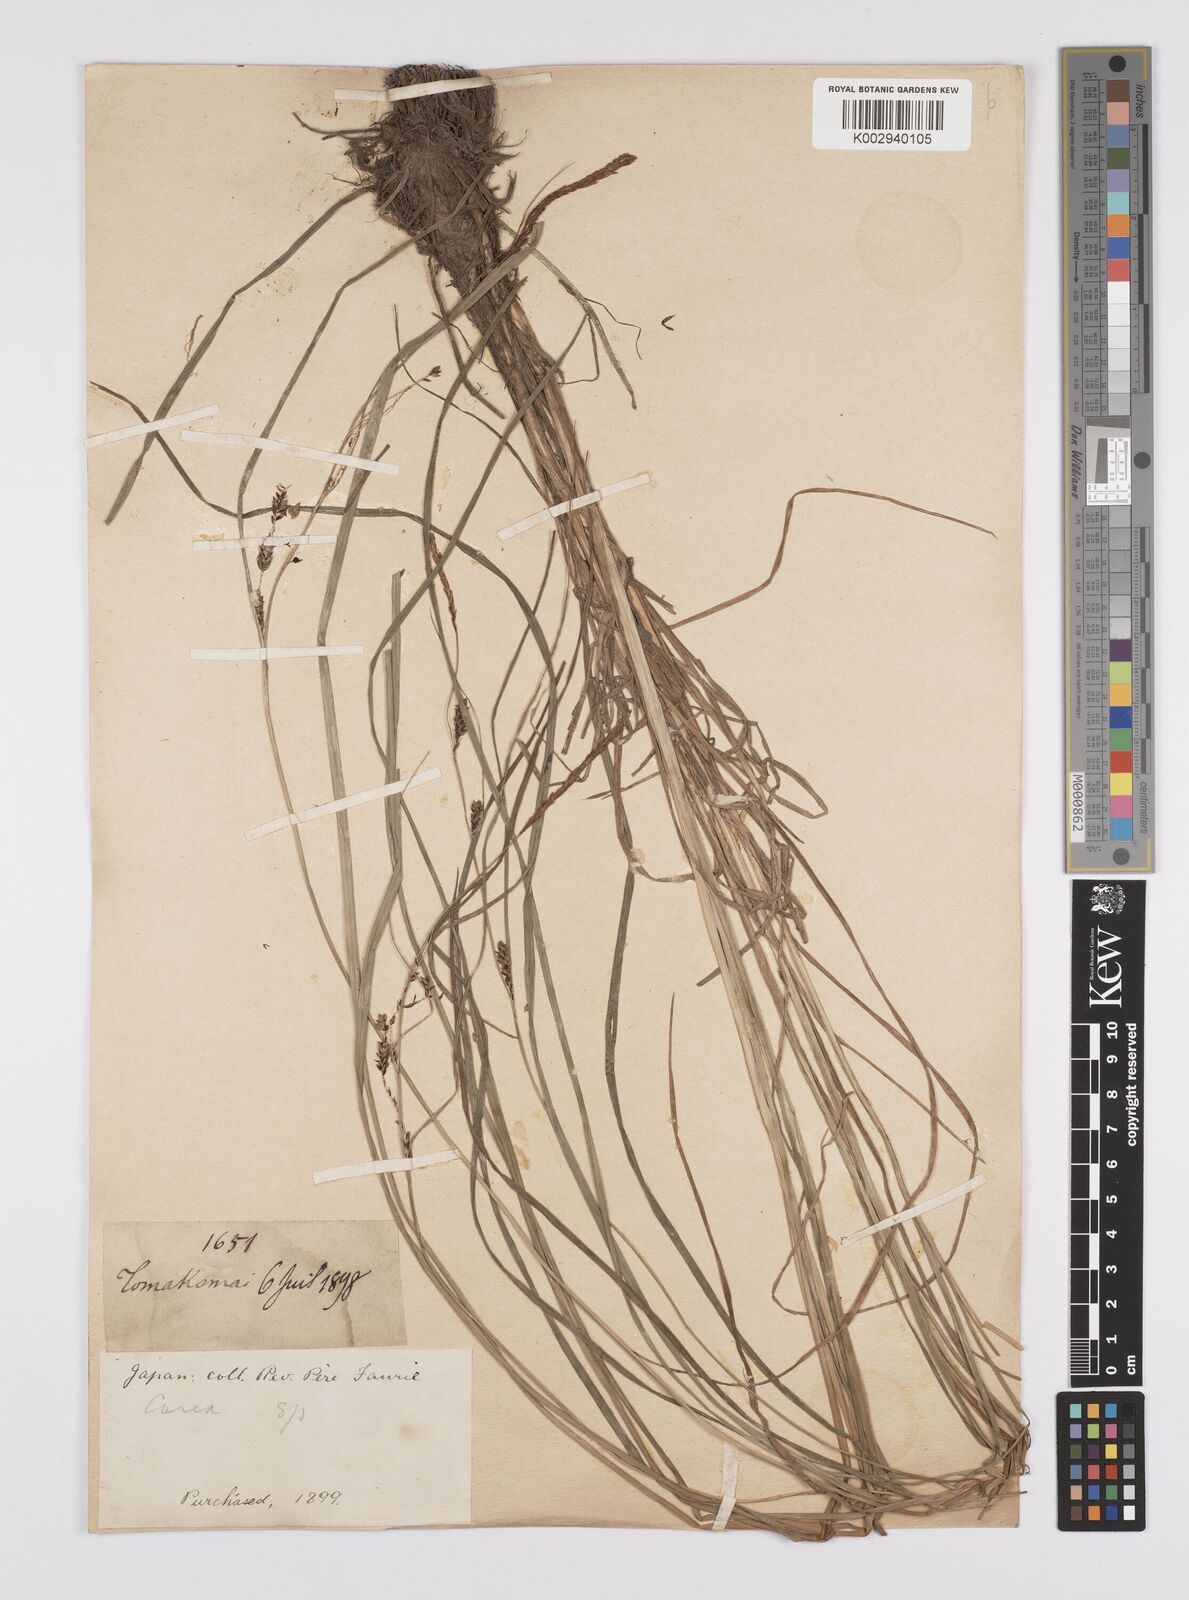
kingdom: Plantae
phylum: Tracheophyta
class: Liliopsida
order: Poales
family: Cyperaceae
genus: Carex
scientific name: Carex thunbergii
